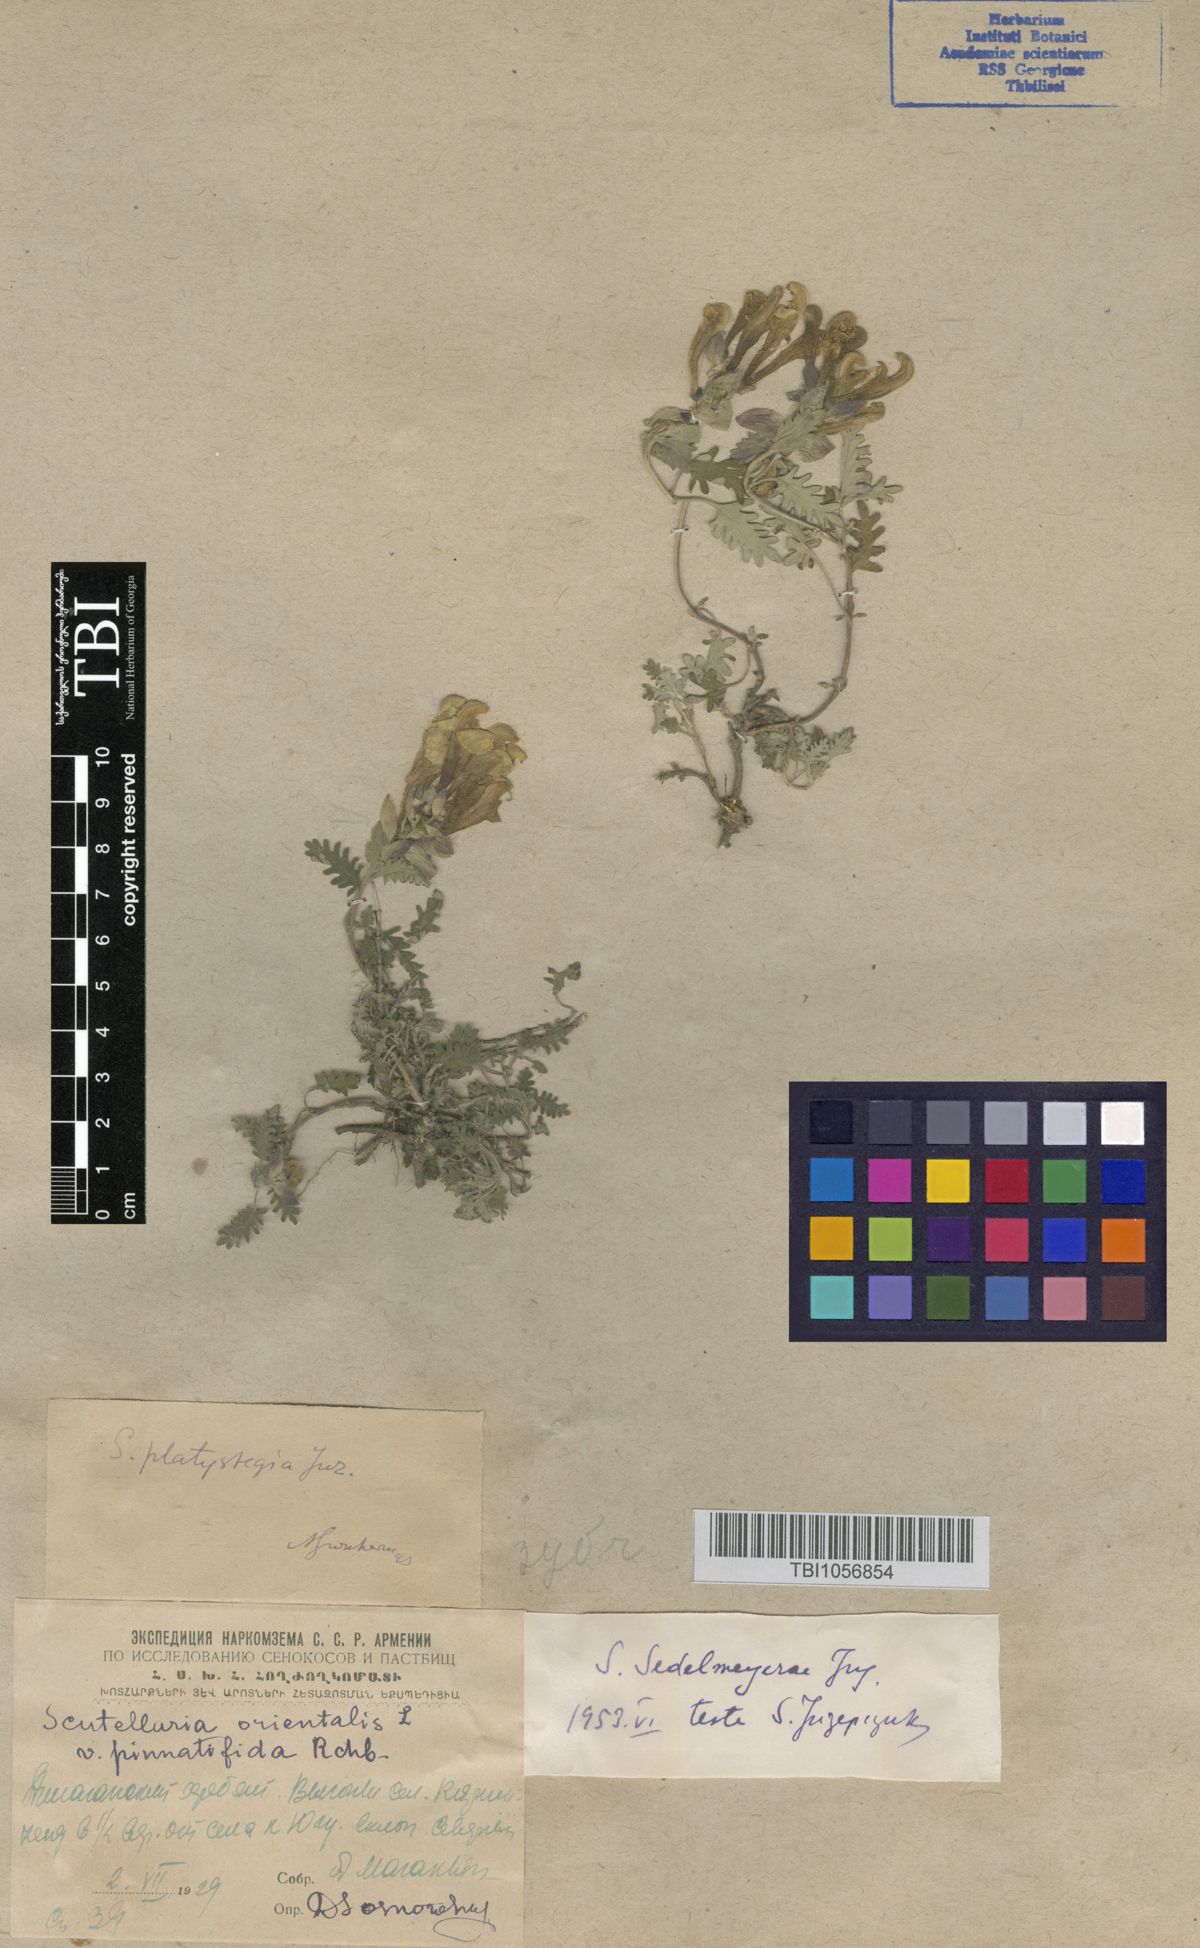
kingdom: Plantae
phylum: Tracheophyta
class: Magnoliopsida
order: Lamiales
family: Lamiaceae
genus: Scutellaria
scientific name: Scutellaria sedelmeyerae
